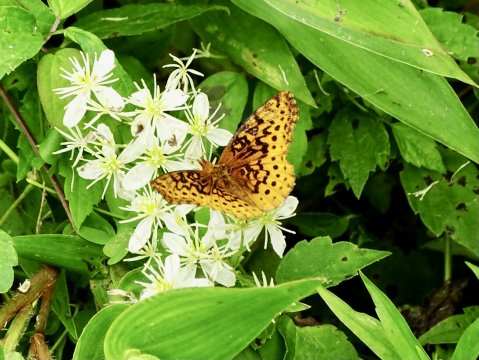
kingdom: Animalia
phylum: Arthropoda
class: Insecta
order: Lepidoptera
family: Nymphalidae
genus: Clossiana
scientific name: Clossiana toddi
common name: Meadow Fritillary
